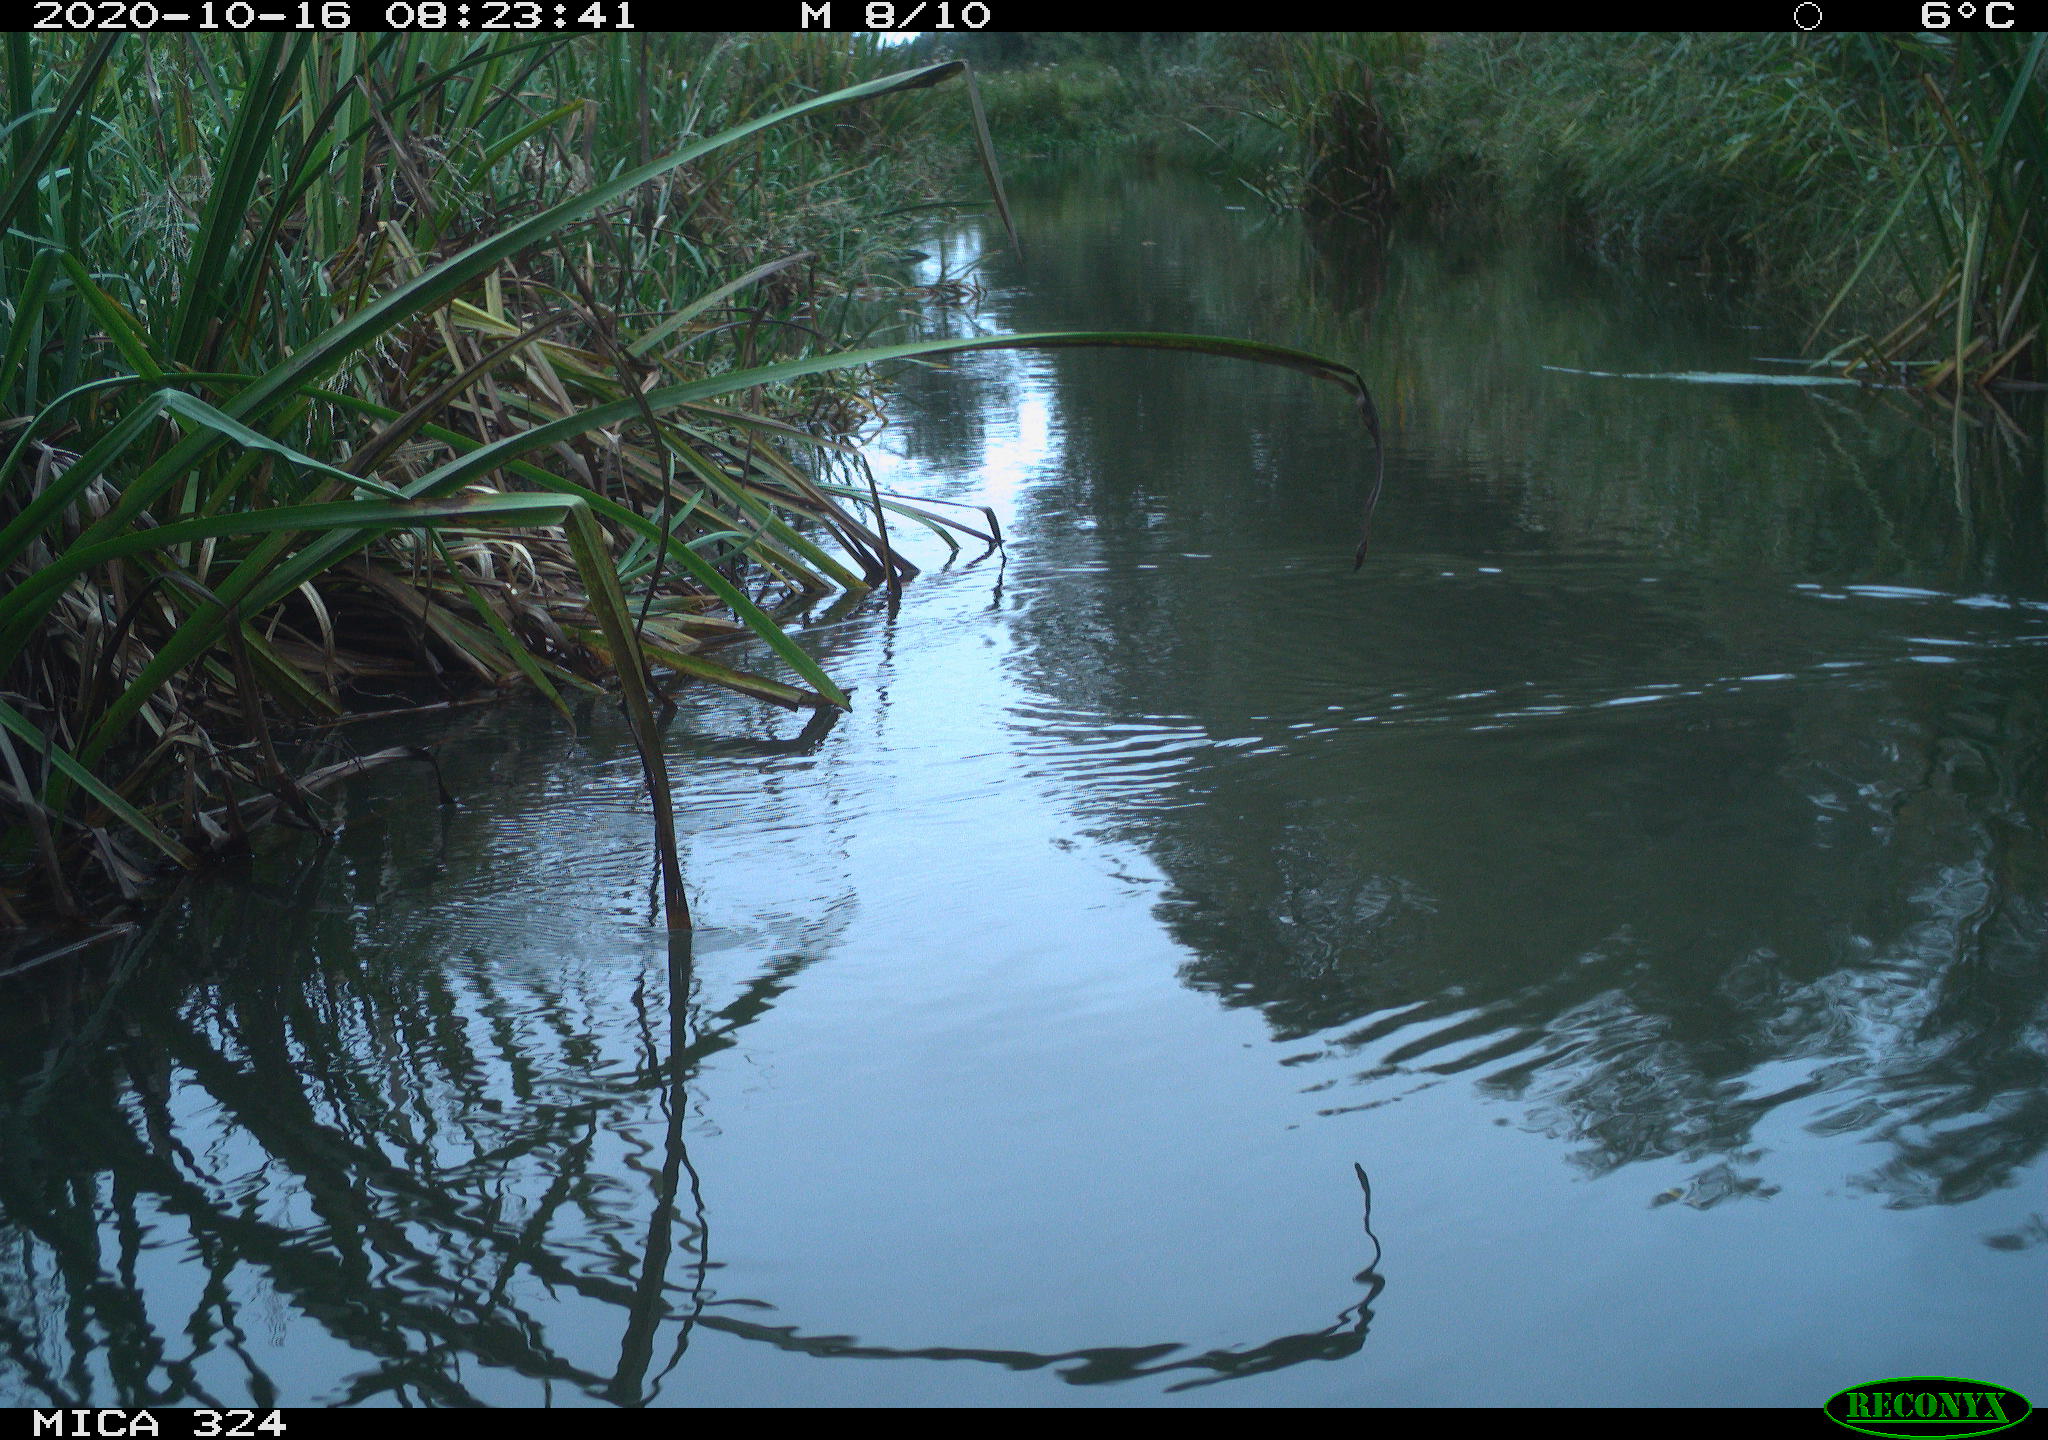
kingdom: Animalia
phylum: Chordata
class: Aves
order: Gruiformes
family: Rallidae
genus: Gallinula
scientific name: Gallinula chloropus
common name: Common moorhen
